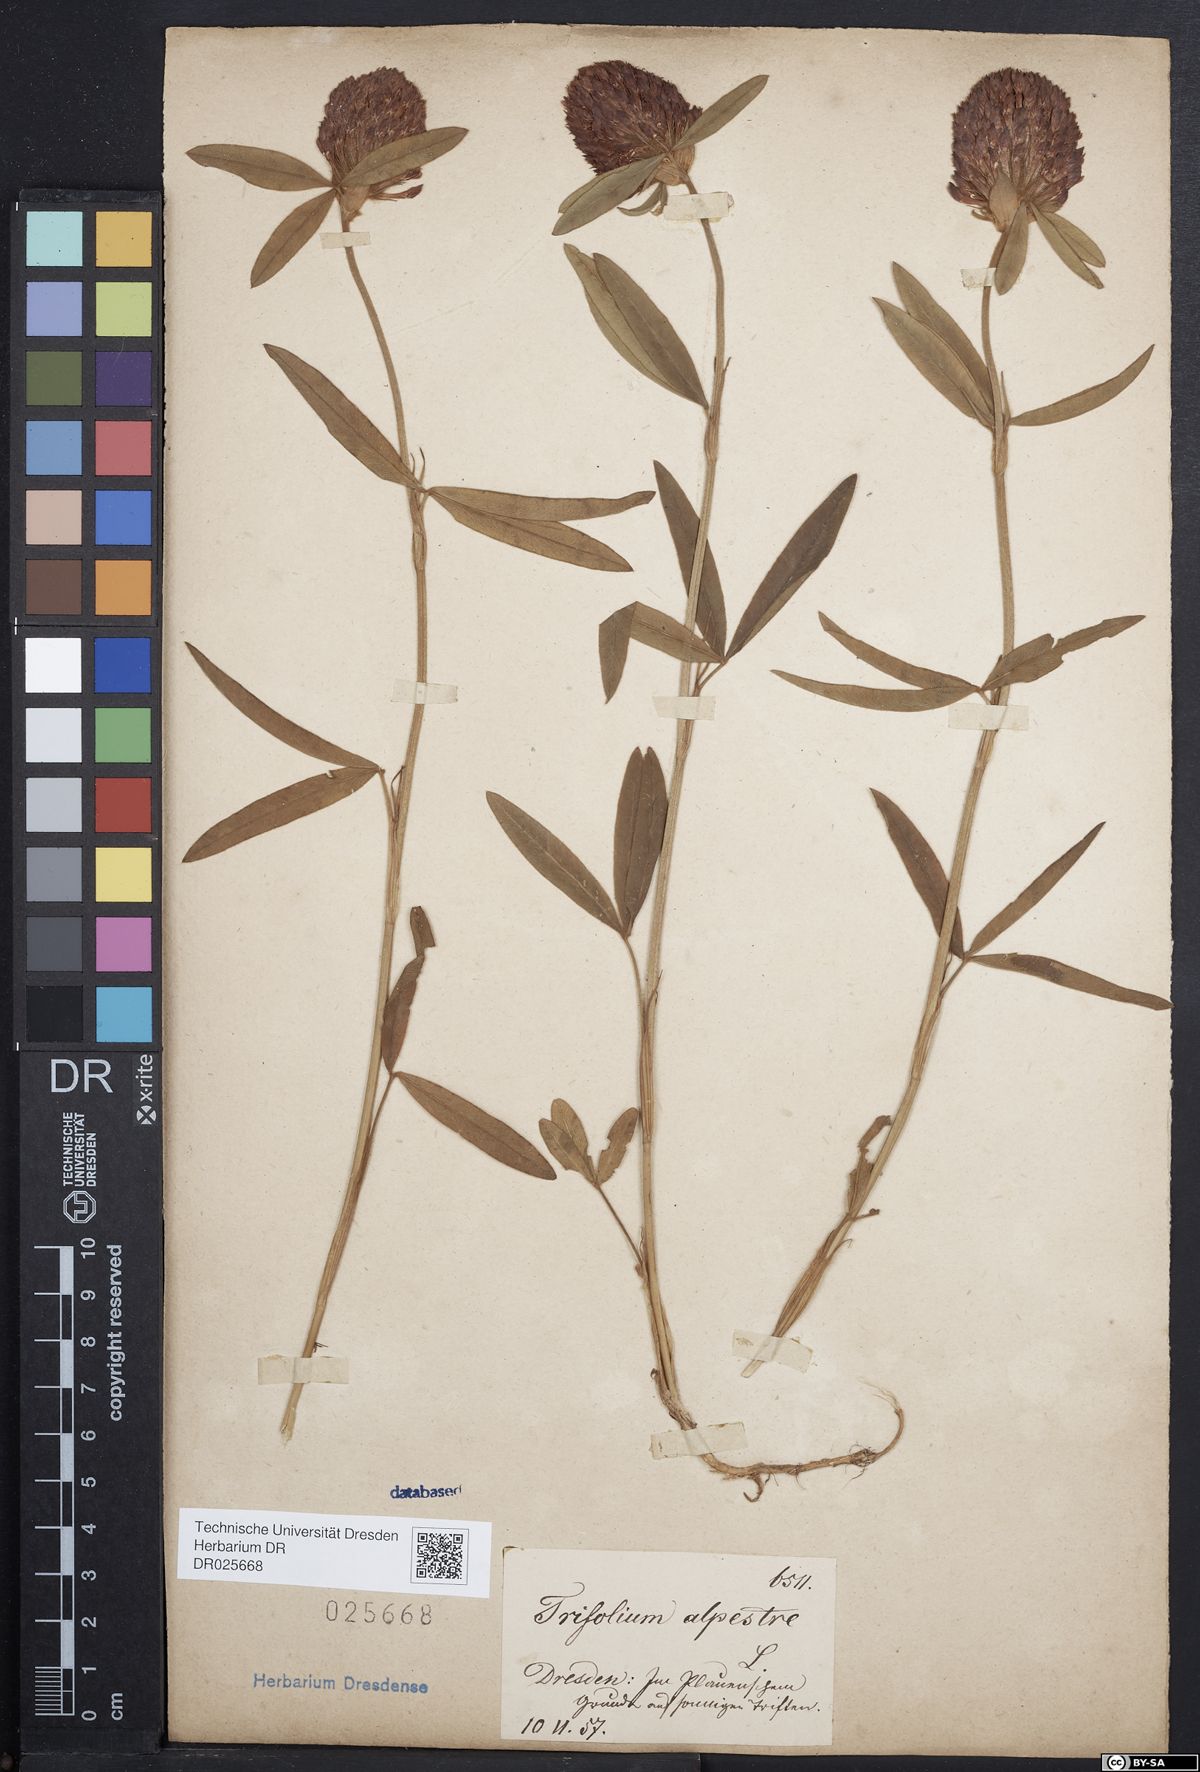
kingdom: Plantae
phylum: Tracheophyta
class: Magnoliopsida
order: Fabales
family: Fabaceae
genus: Trifolium
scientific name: Trifolium alpestre
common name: Owl-head clover
